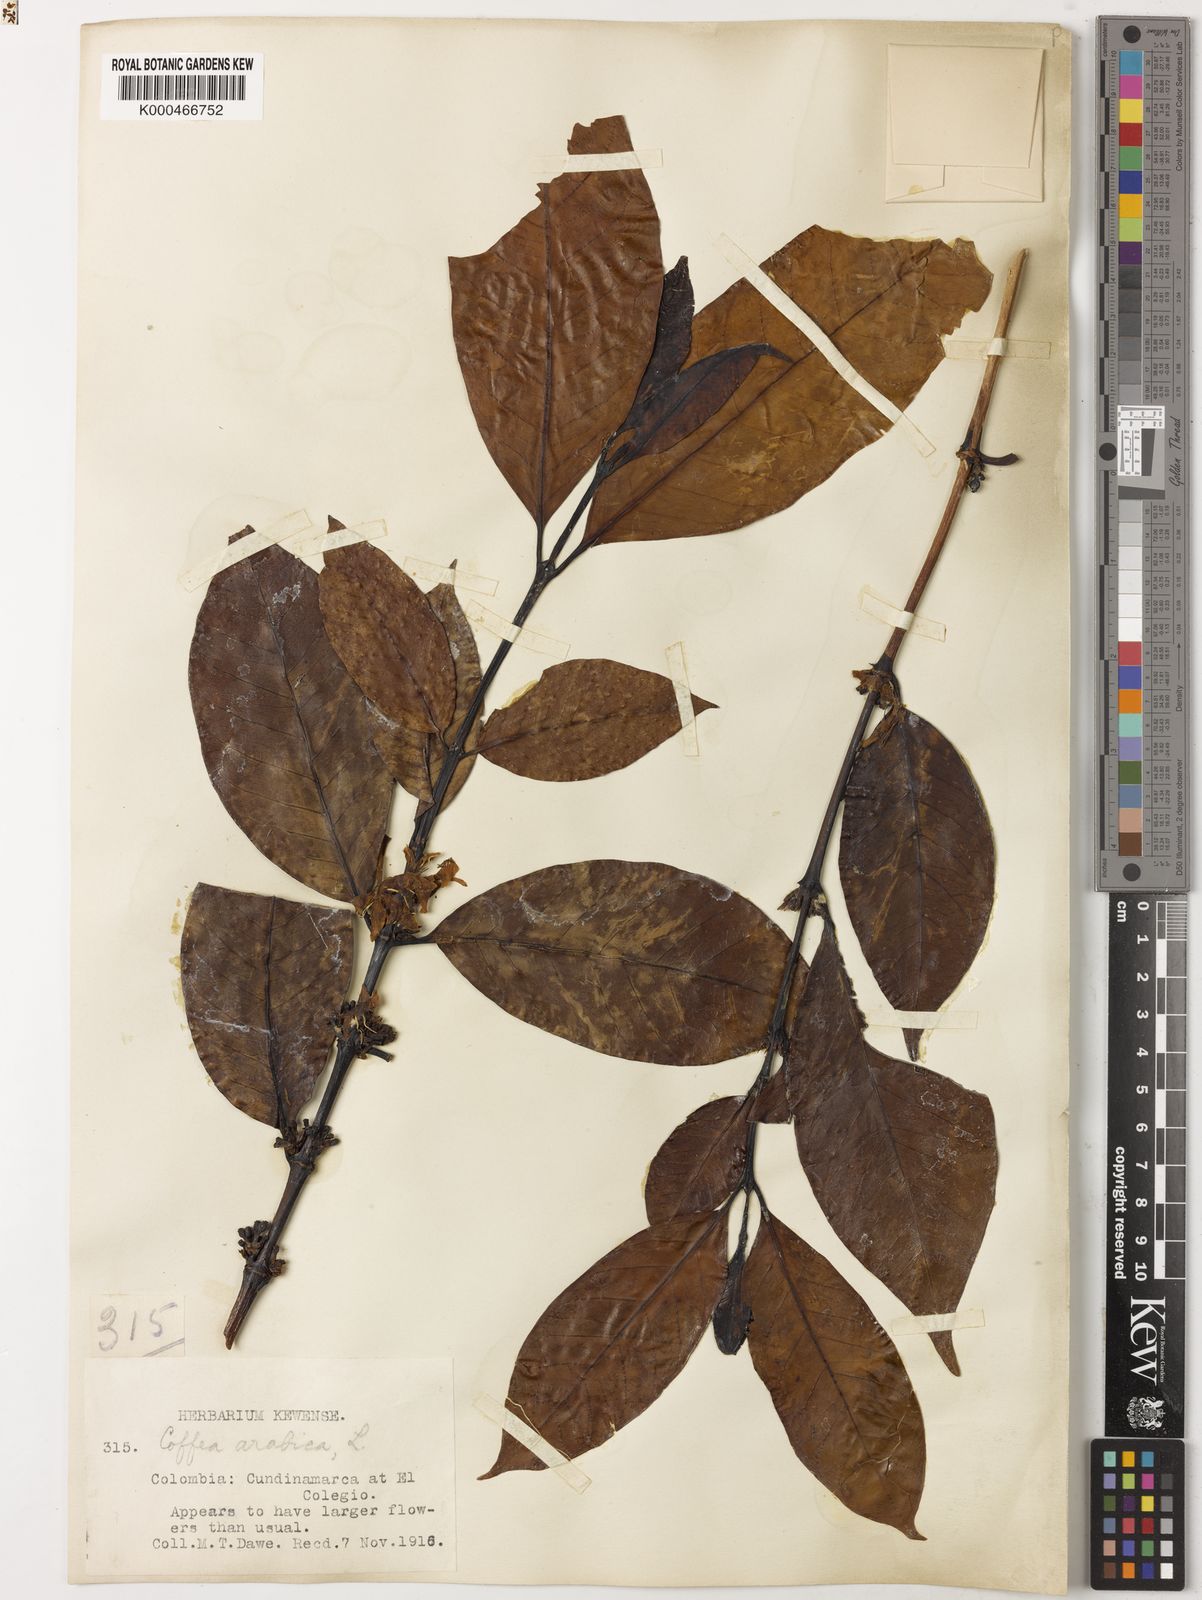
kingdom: Plantae
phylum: Tracheophyta
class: Magnoliopsida
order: Gentianales
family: Rubiaceae
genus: Coffea
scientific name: Coffea arabica
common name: Coffee
